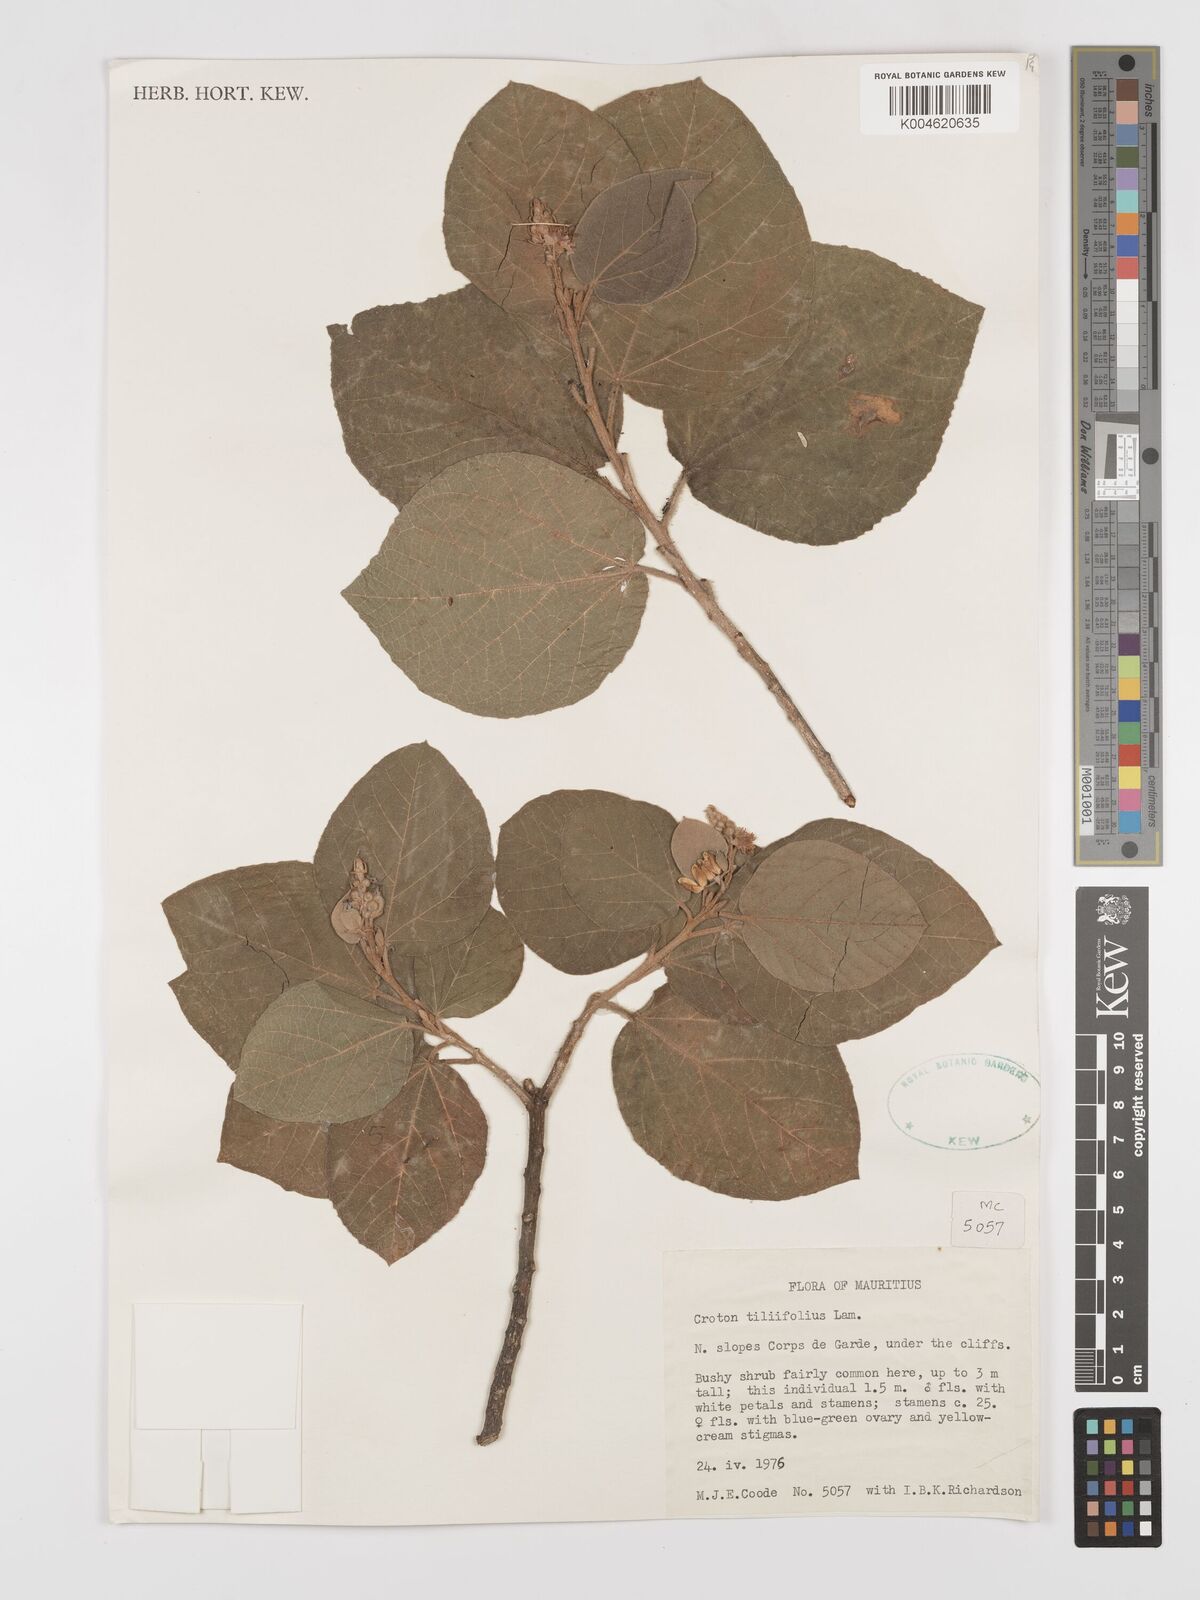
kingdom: Plantae
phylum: Tracheophyta
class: Magnoliopsida
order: Malpighiales
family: Euphorbiaceae
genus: Croton
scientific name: Croton
